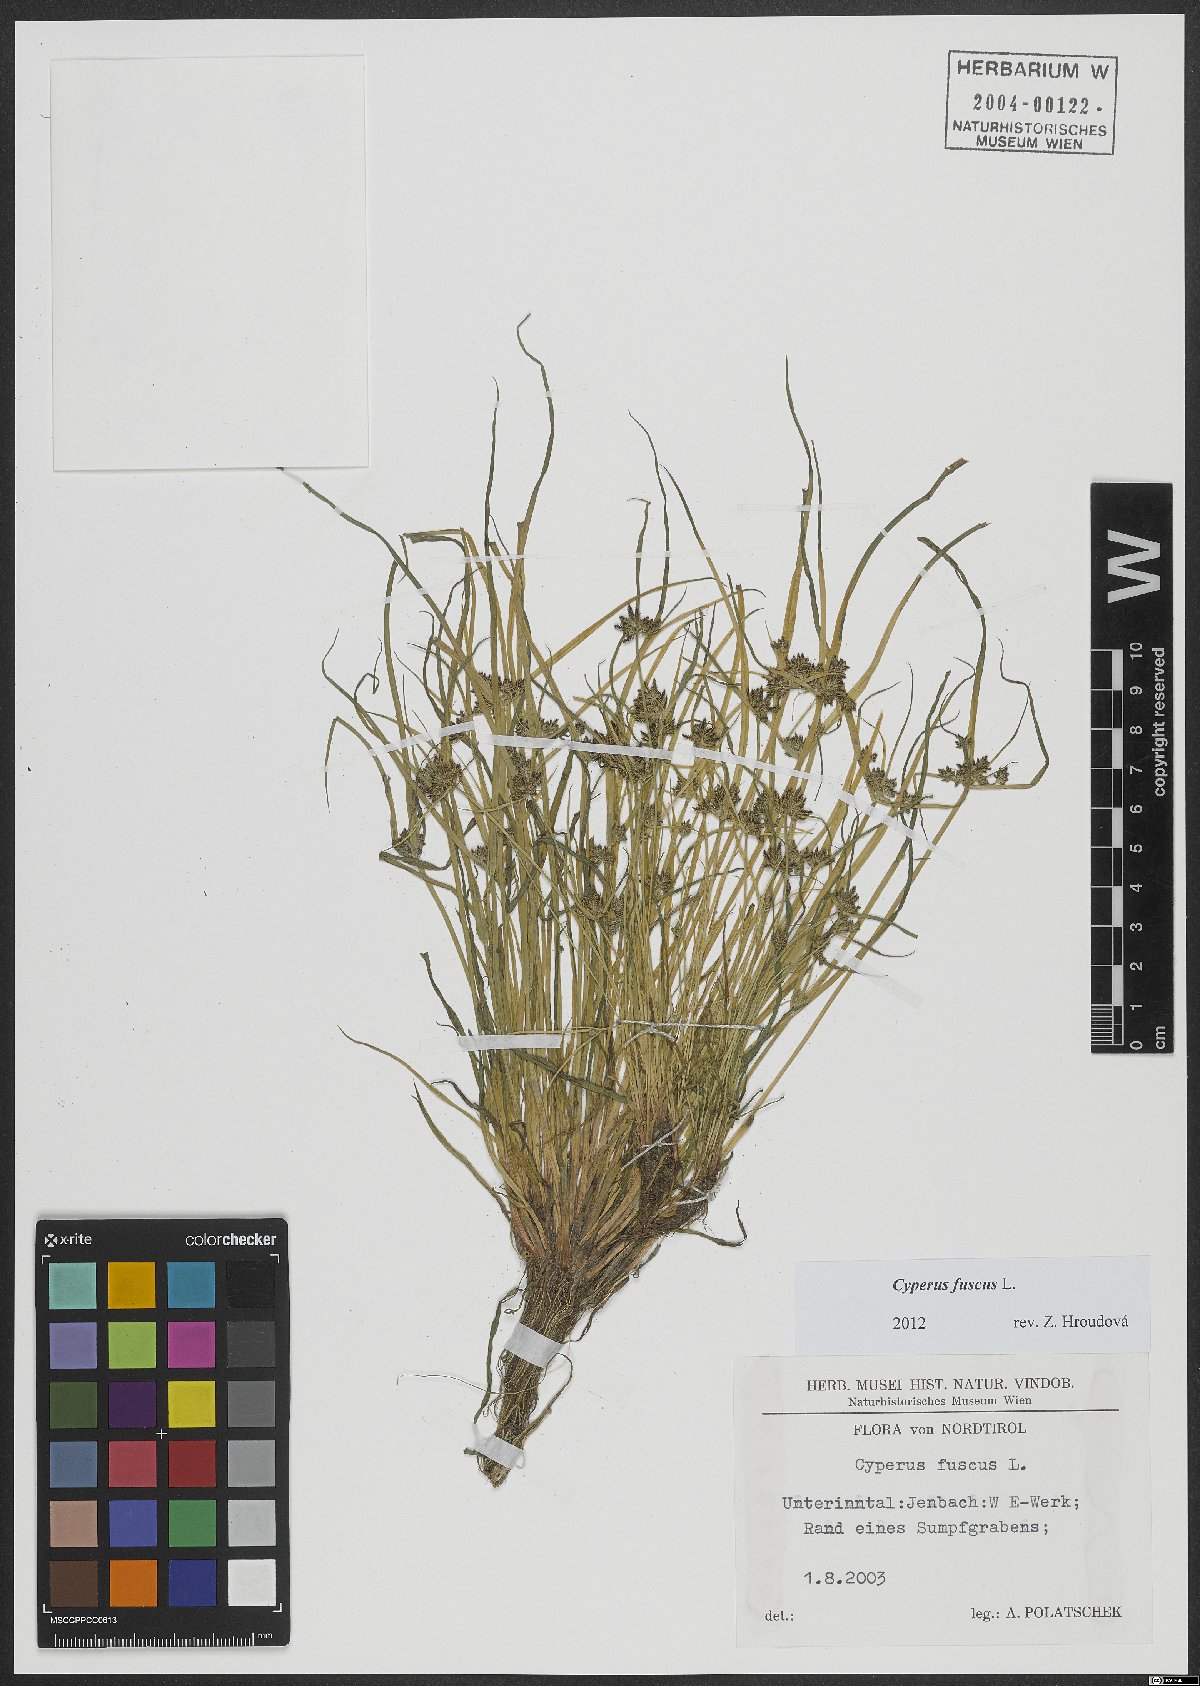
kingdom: Plantae
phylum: Tracheophyta
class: Liliopsida
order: Poales
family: Cyperaceae
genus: Cyperus
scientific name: Cyperus fuscus
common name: Brown galingale
